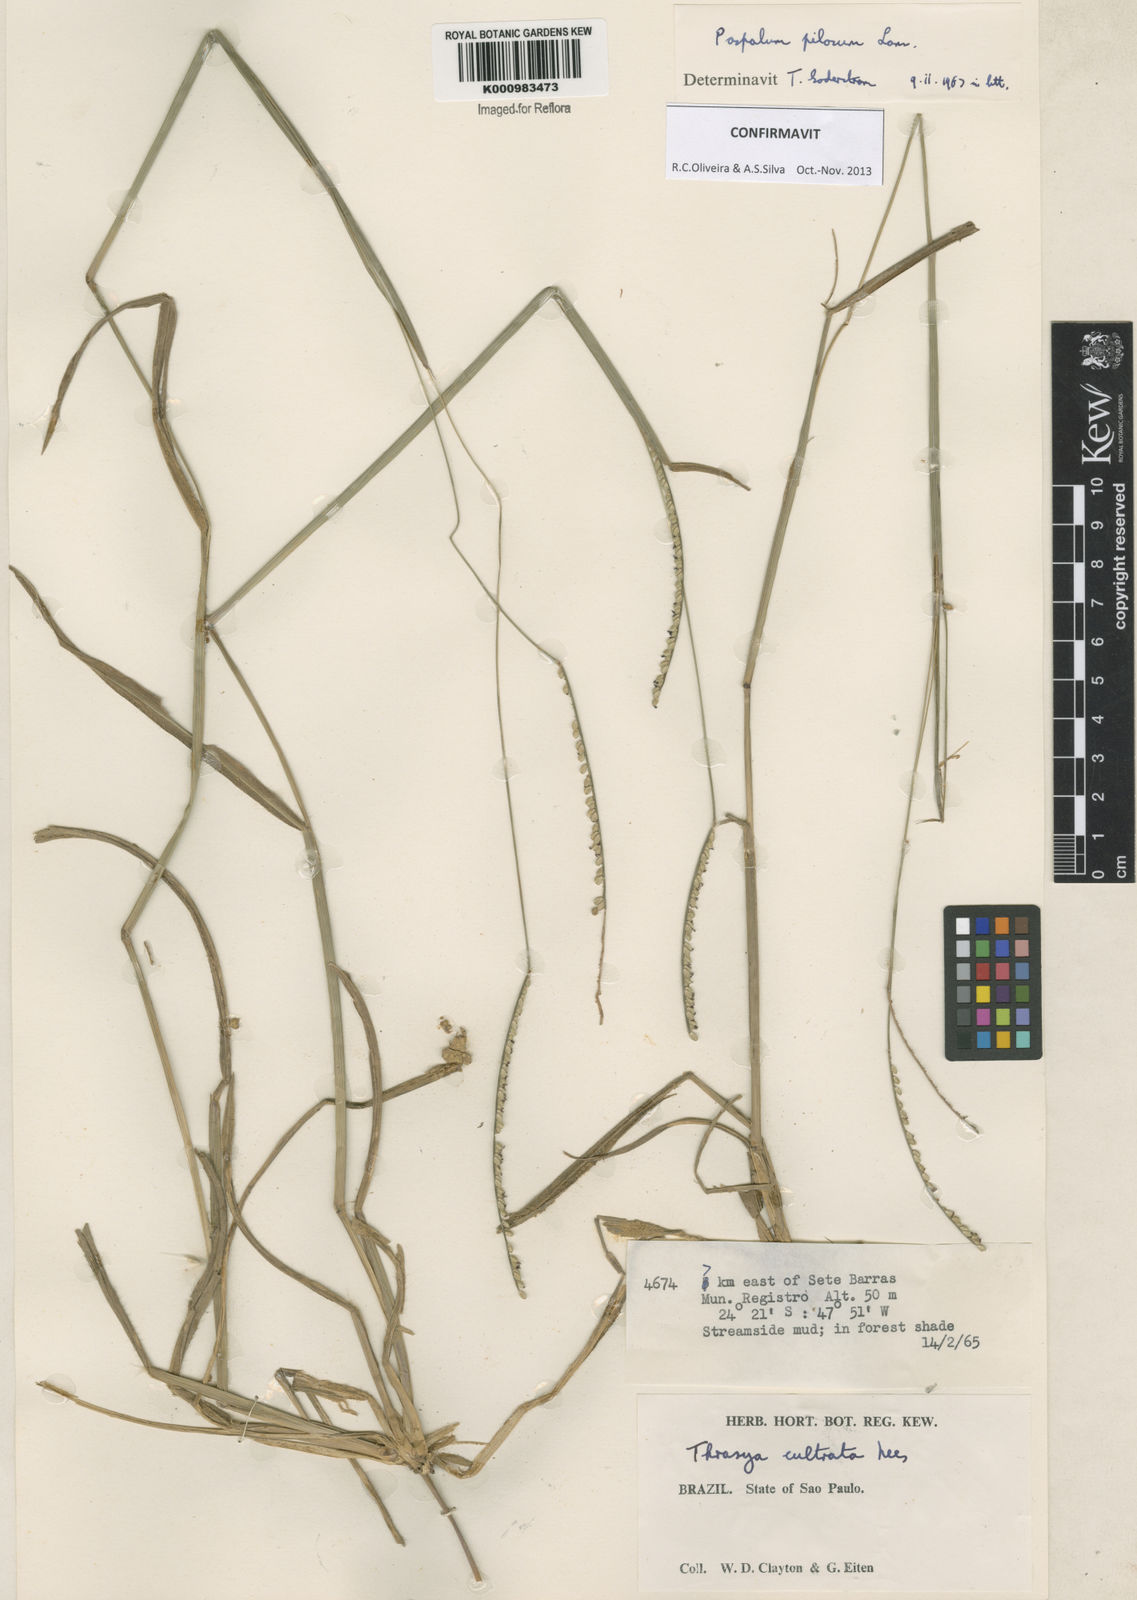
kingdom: Plantae
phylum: Tracheophyta
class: Liliopsida
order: Poales
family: Poaceae
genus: Paspalum
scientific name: Paspalum pilosum
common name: Crowngrass
